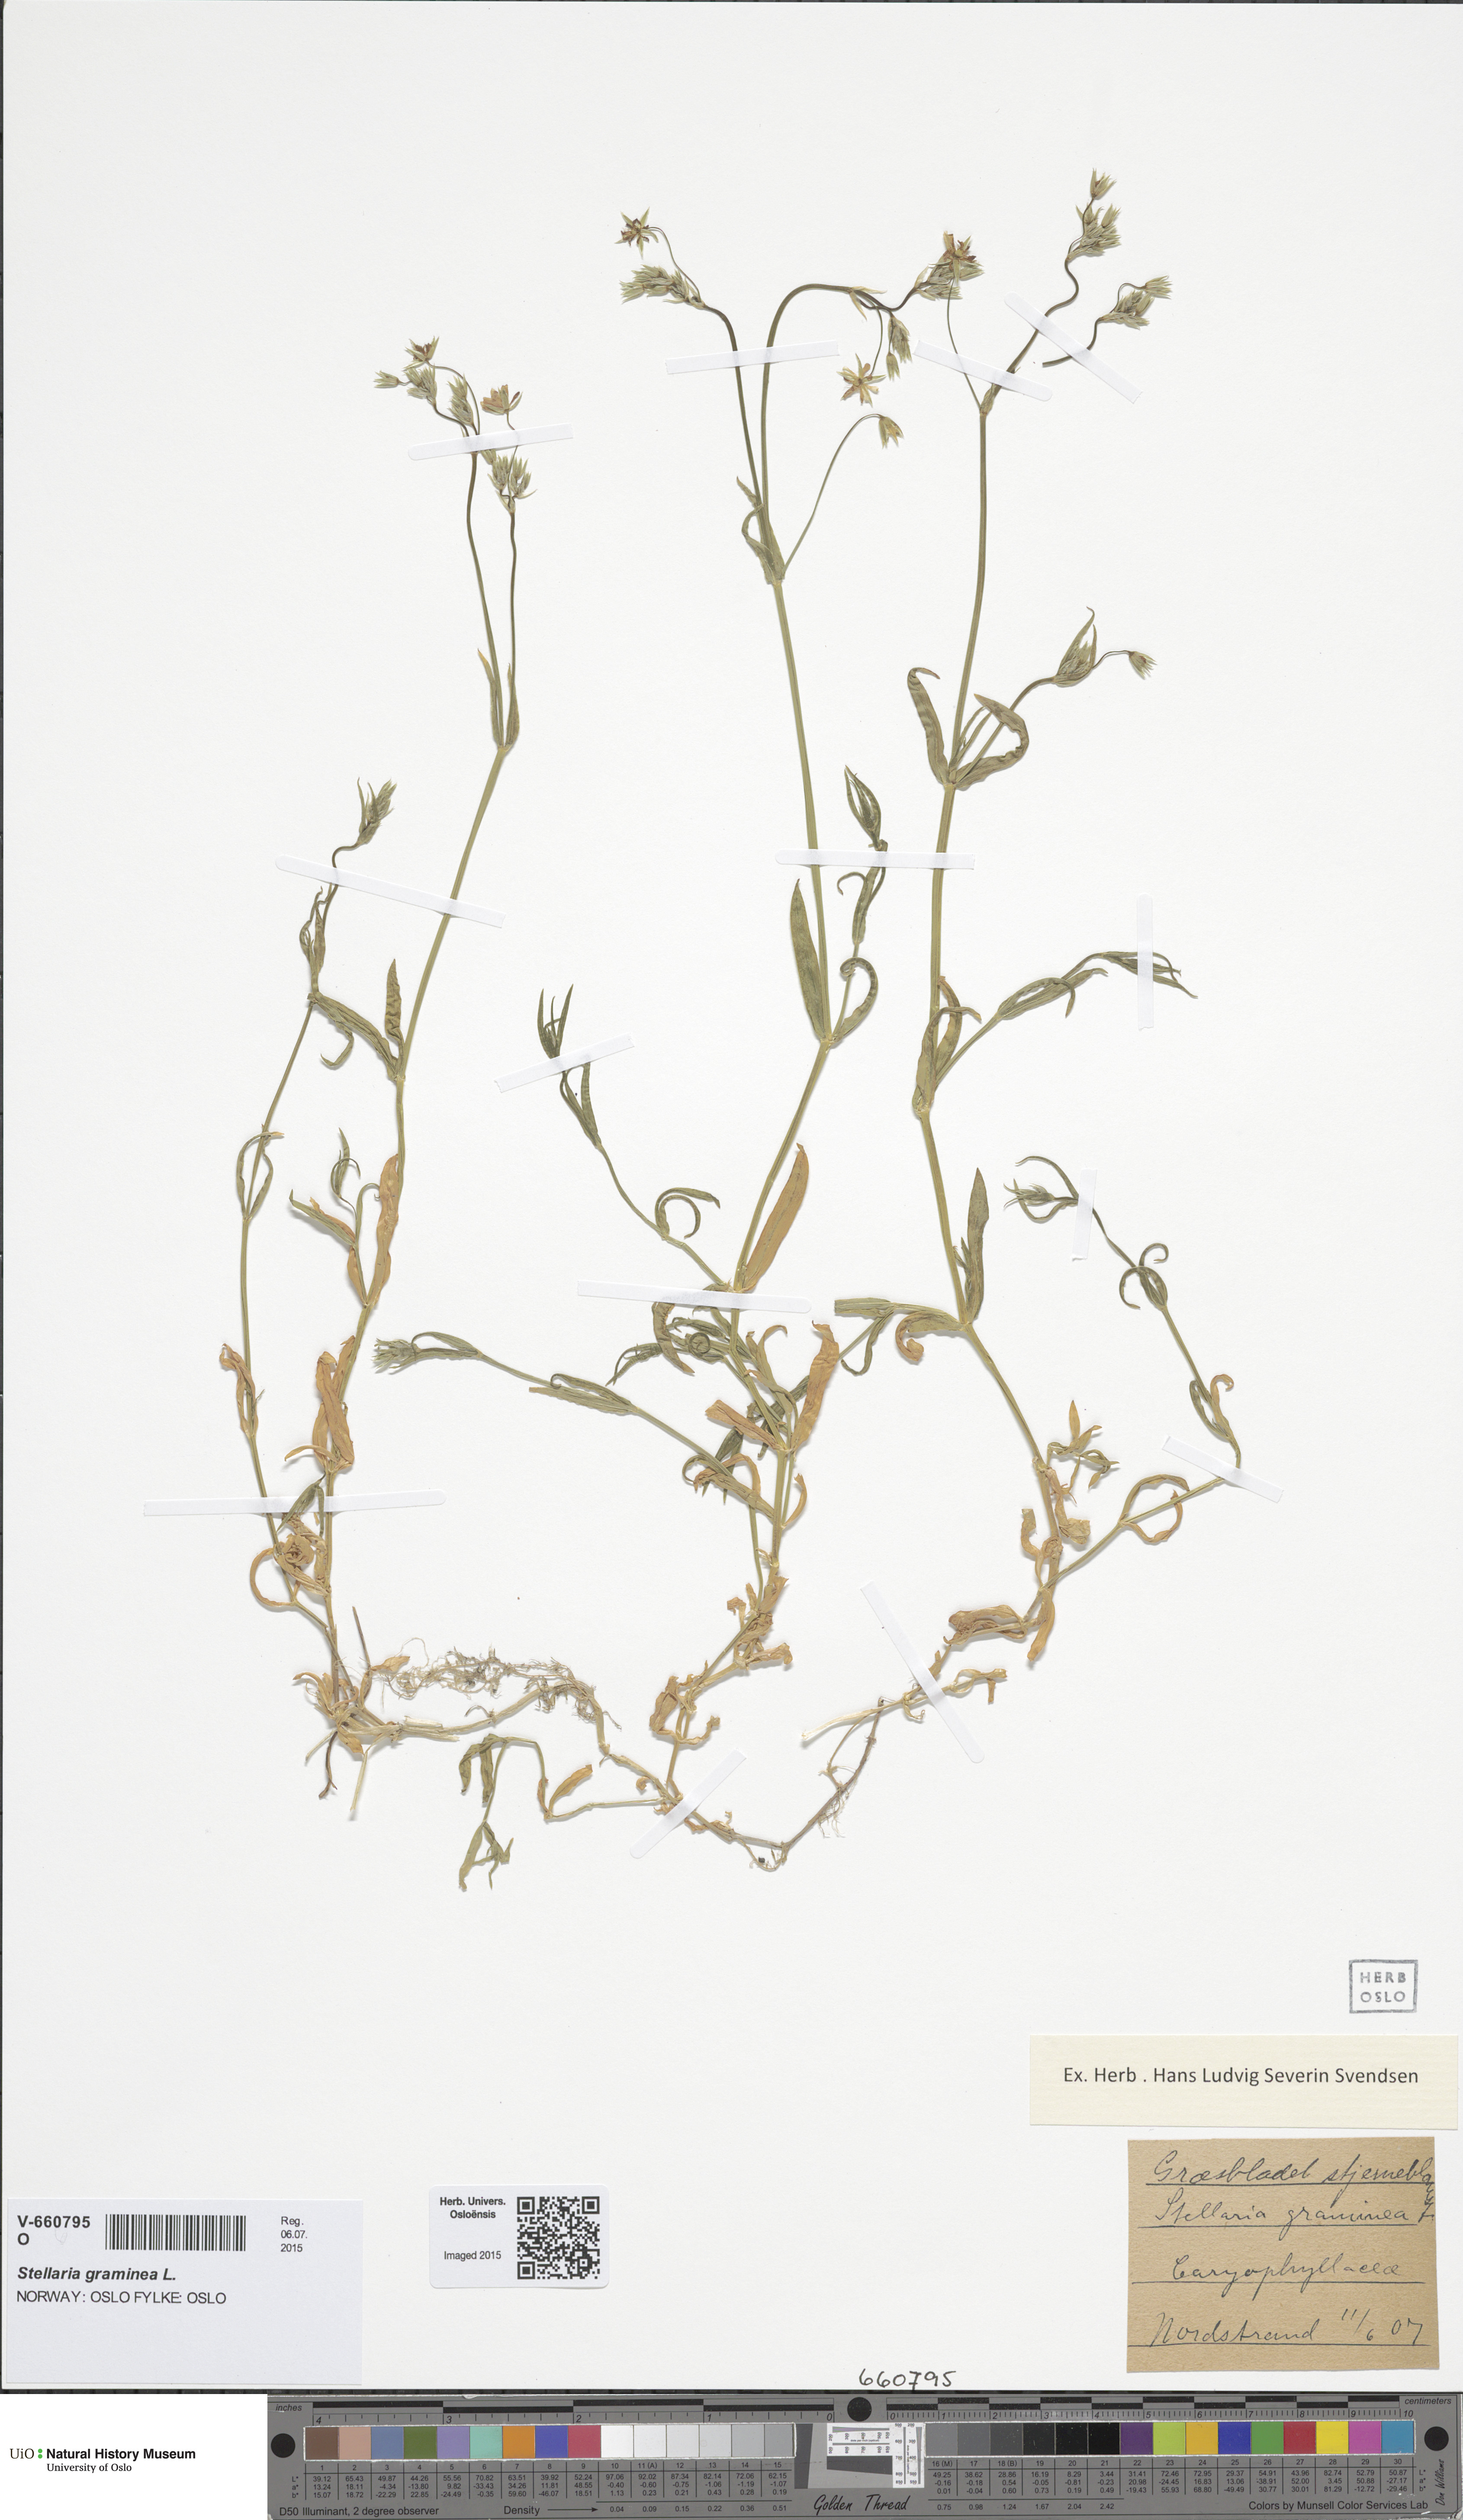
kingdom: Plantae
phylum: Tracheophyta
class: Magnoliopsida
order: Caryophyllales
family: Caryophyllaceae
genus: Stellaria
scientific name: Stellaria graminea
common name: Grass-like starwort
